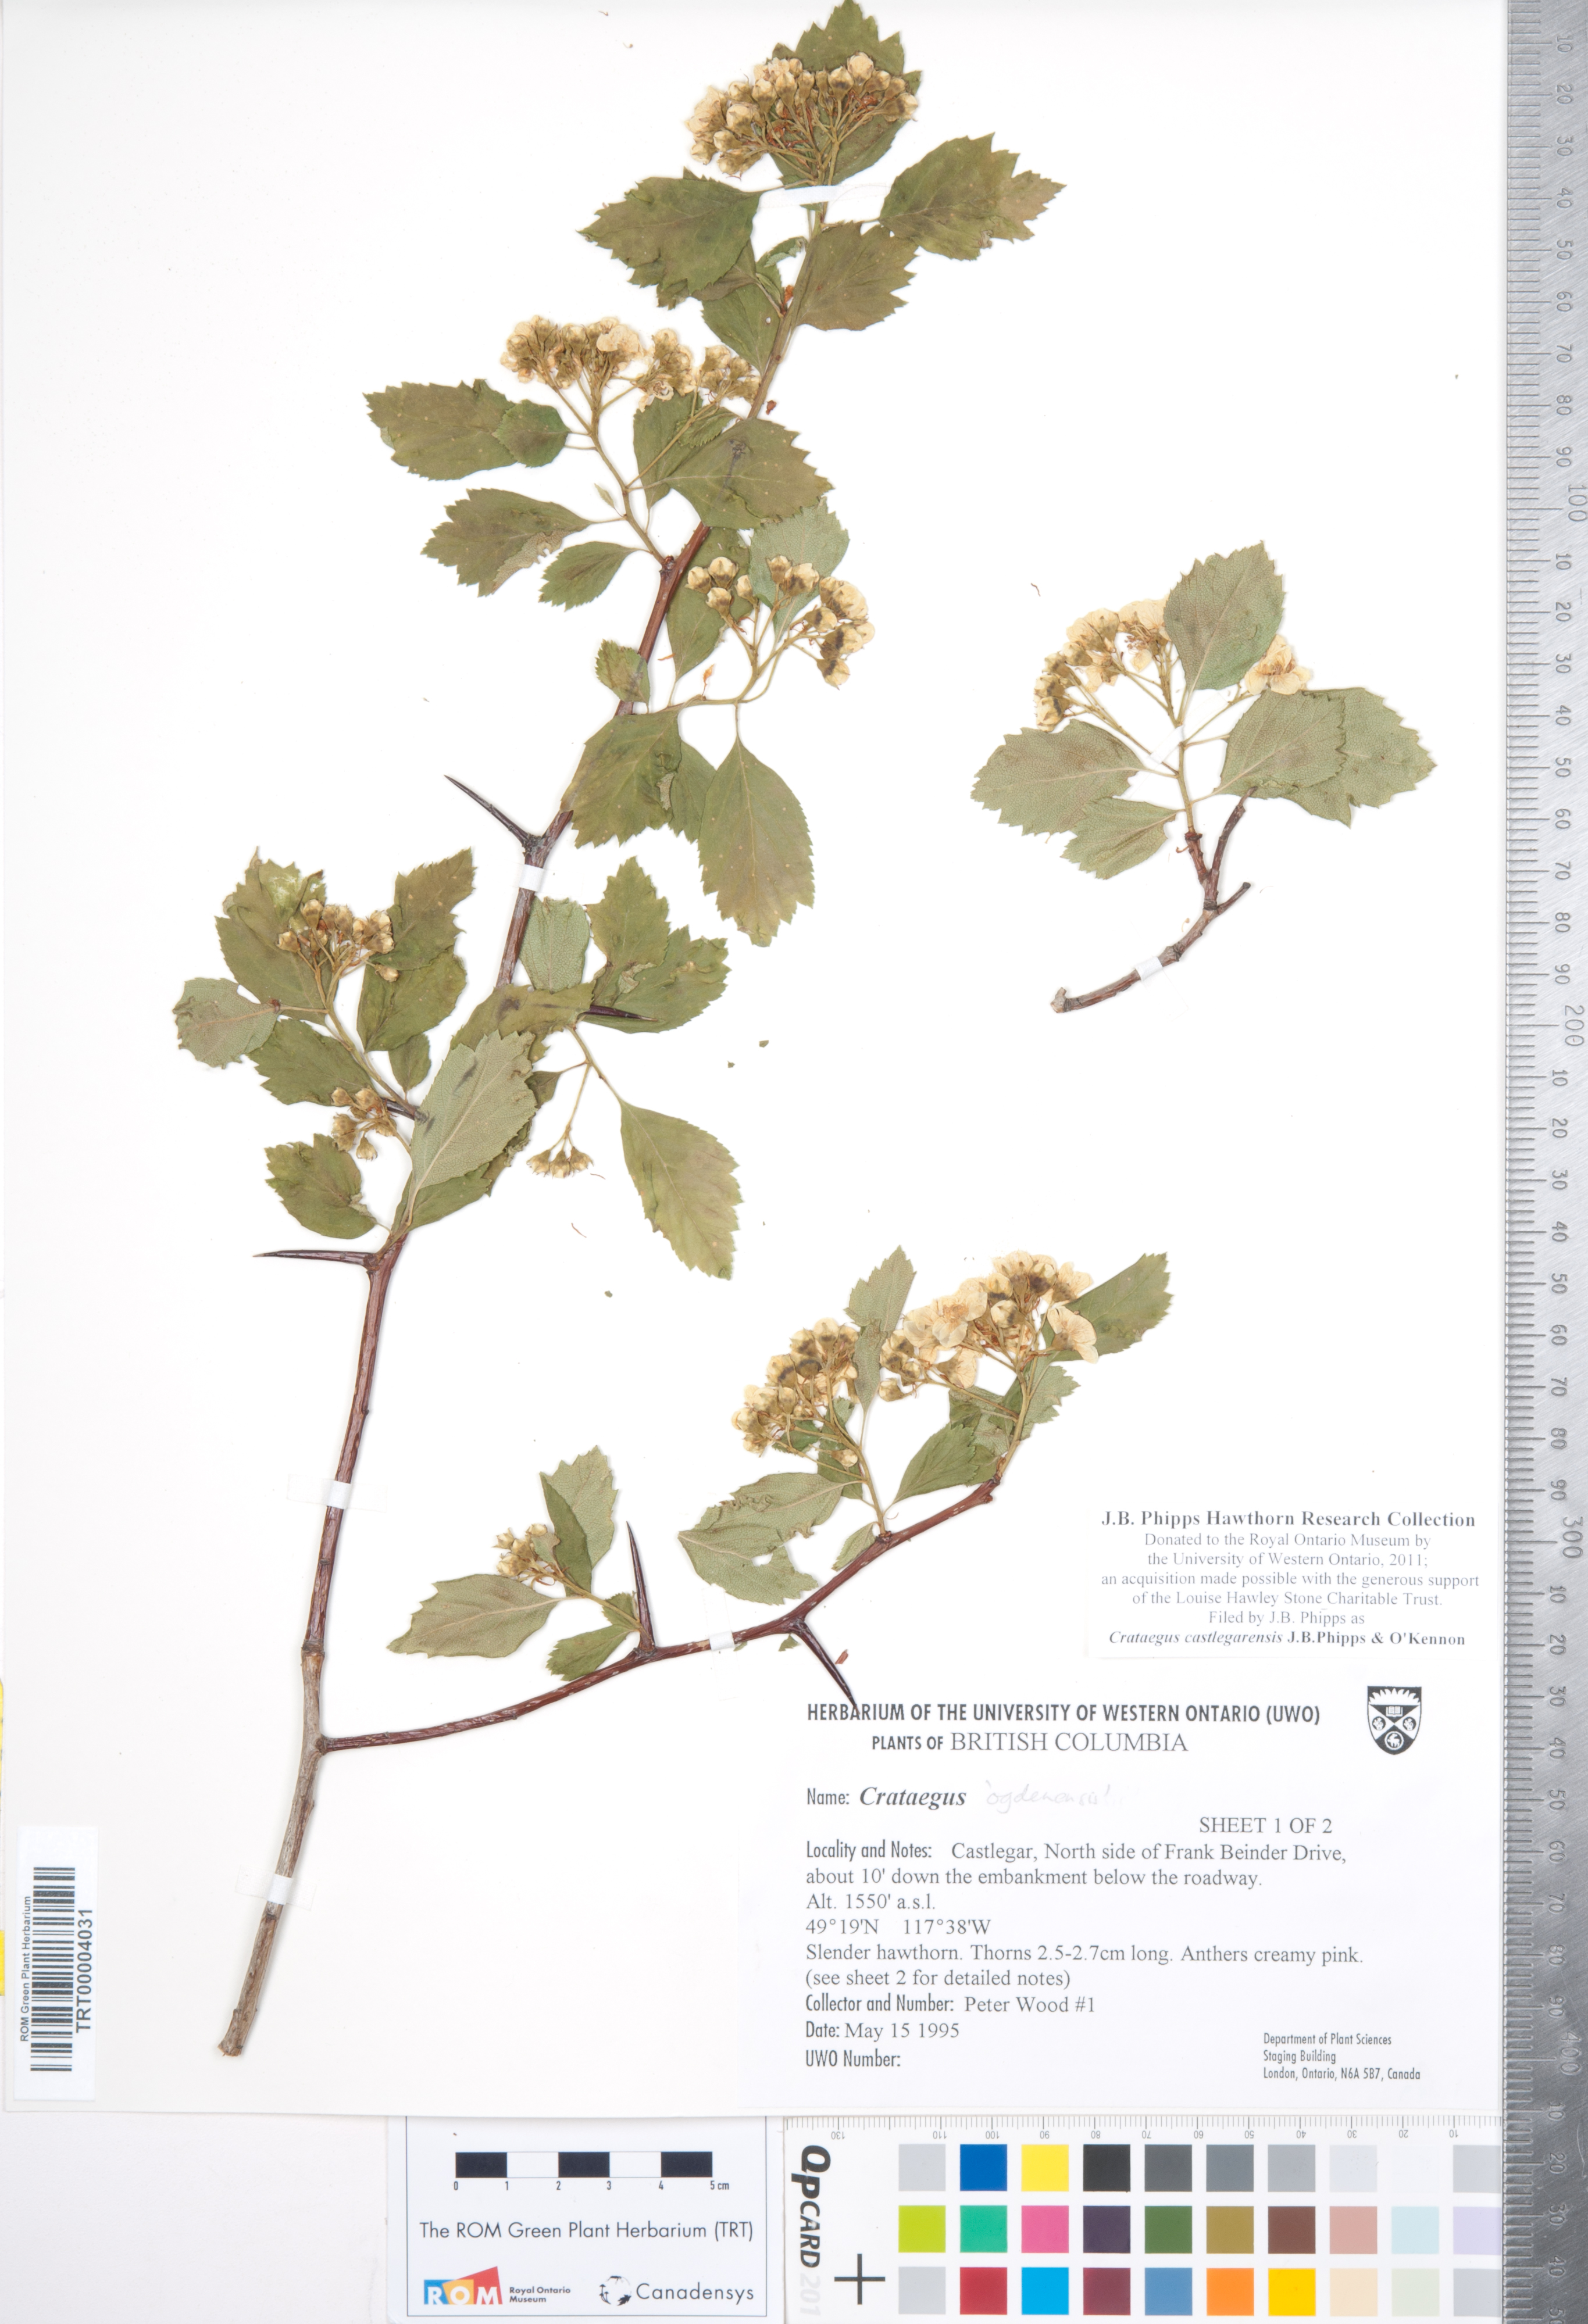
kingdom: Plantae
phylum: Tracheophyta
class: Magnoliopsida
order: Rosales
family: Rosaceae
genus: Crataegus
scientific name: Crataegus castlegarensis
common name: Castlegar hawthorn
